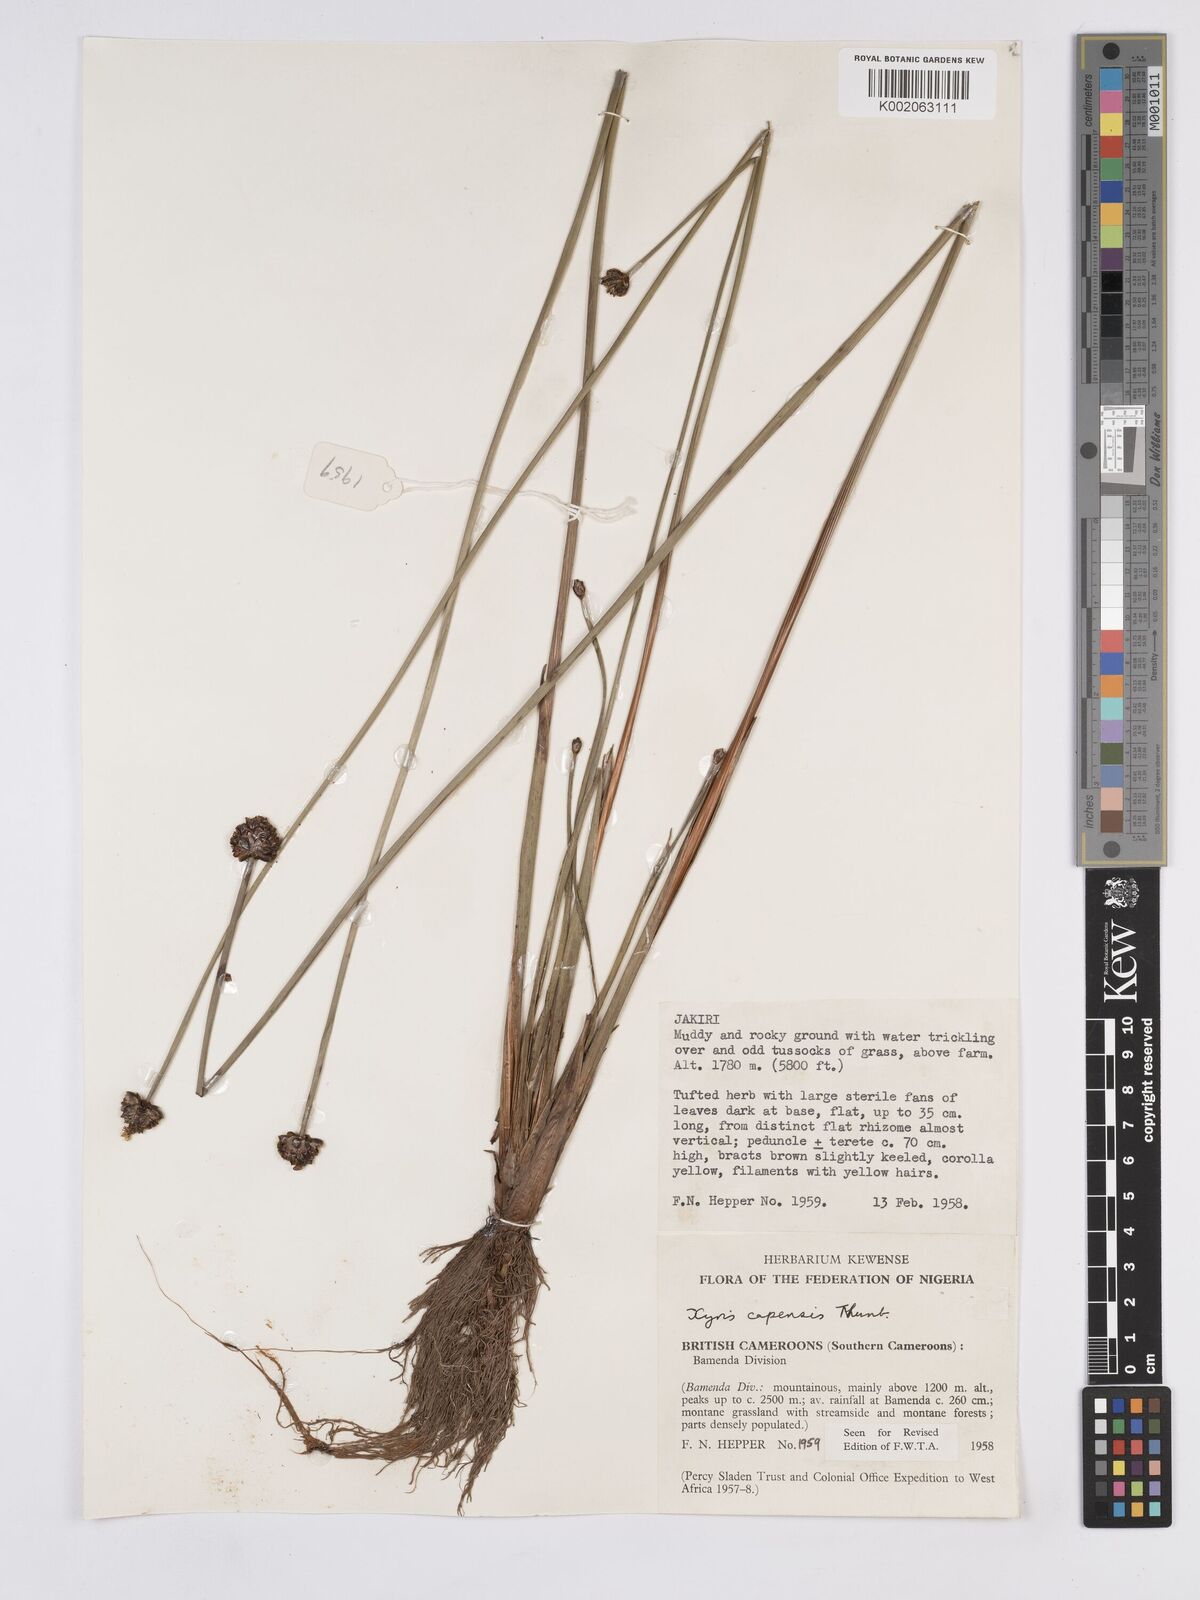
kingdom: Plantae
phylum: Tracheophyta
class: Liliopsida
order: Poales
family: Xyridaceae
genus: Xyris
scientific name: Xyris capensis
